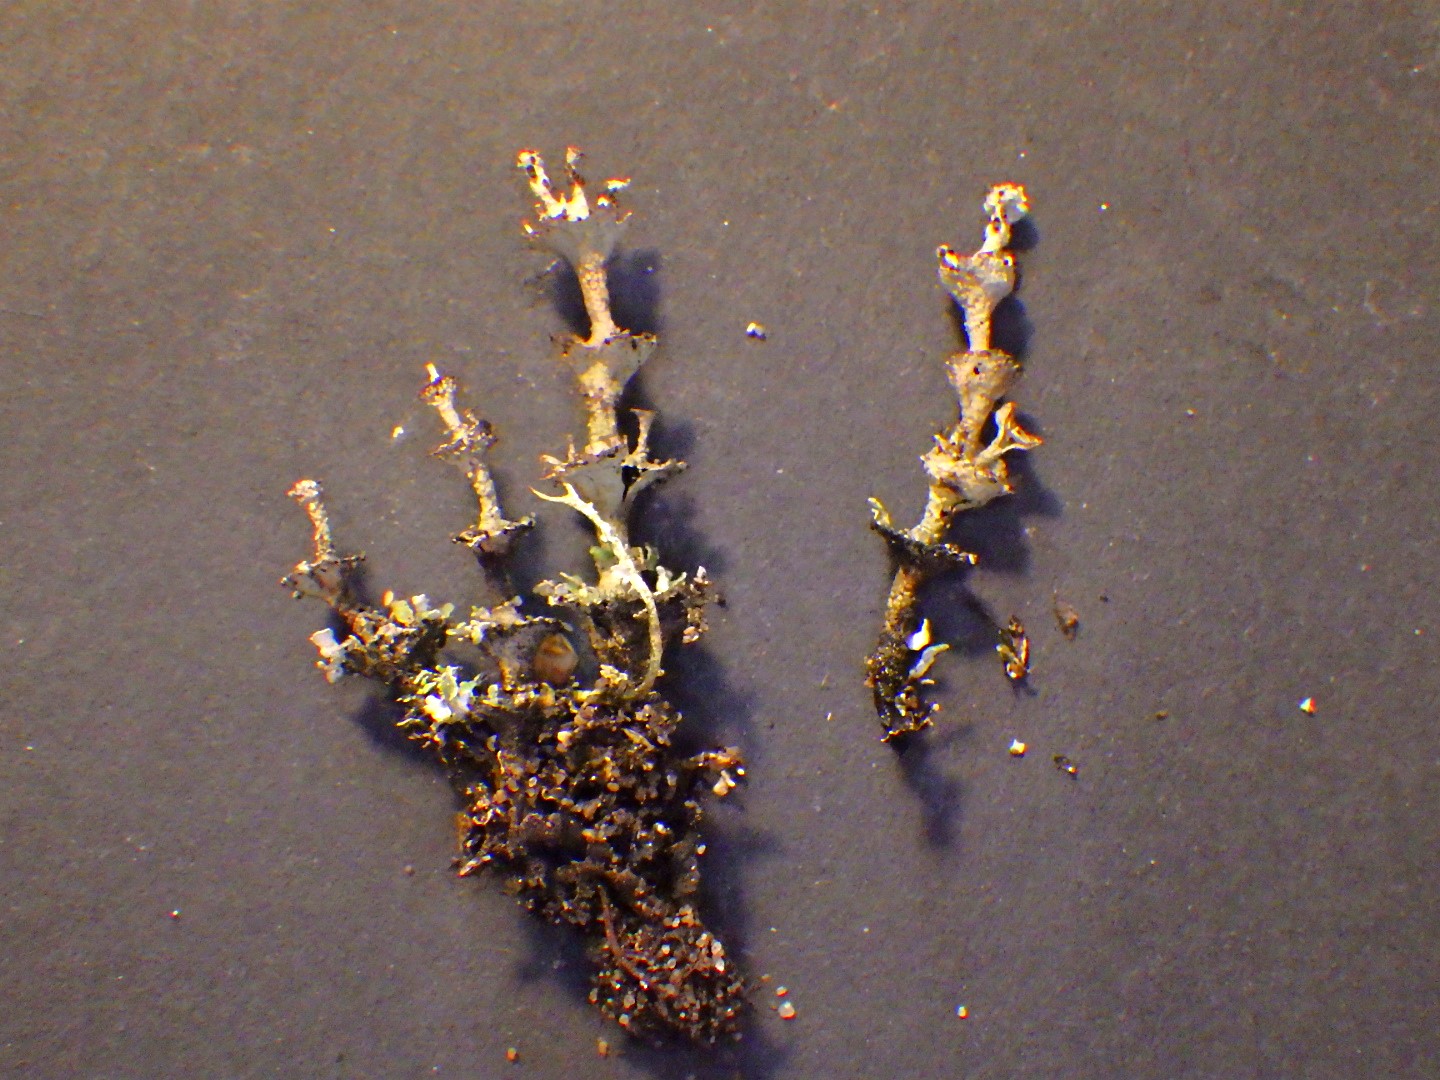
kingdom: Fungi
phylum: Ascomycota
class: Lecanoromycetes
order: Lecanorales
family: Cladoniaceae
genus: Cladonia
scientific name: Cladonia cervicornis
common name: etage-bægerlav
